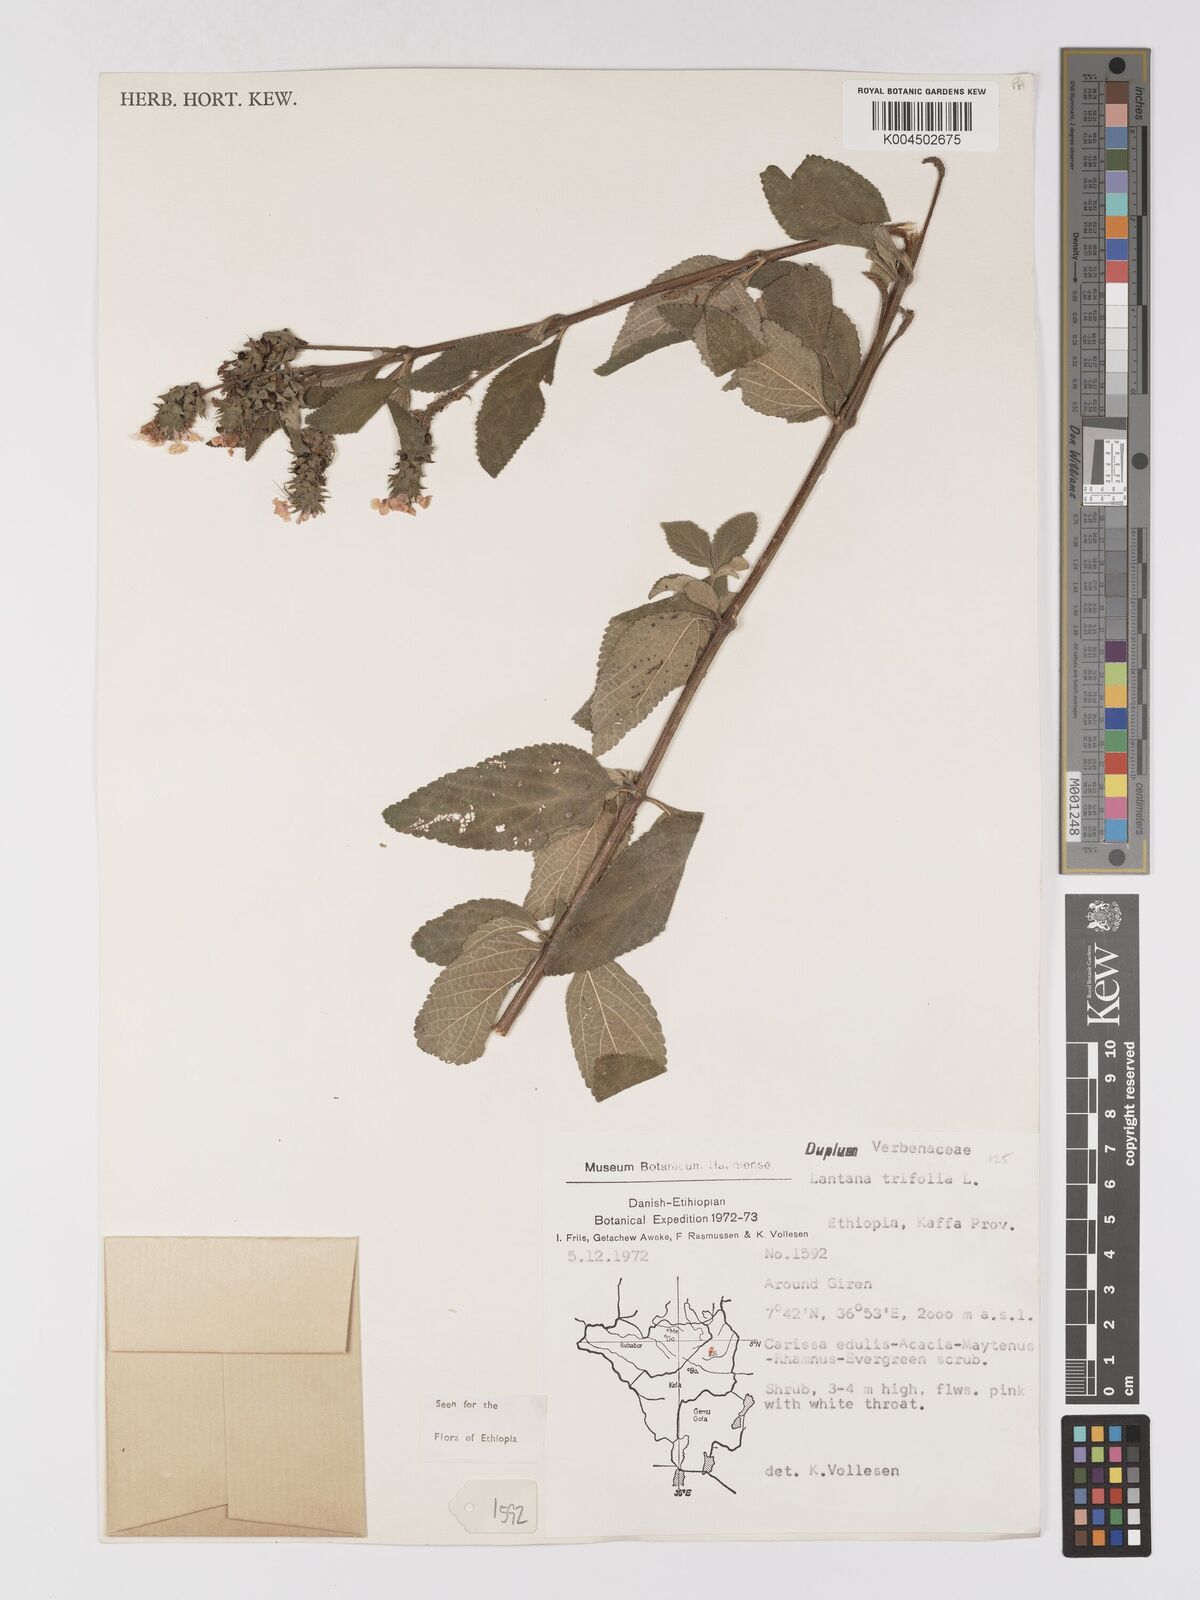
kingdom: Plantae
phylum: Tracheophyta
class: Magnoliopsida
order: Lamiales
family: Verbenaceae
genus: Lantana
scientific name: Lantana trifolia
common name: Sweet-sage
